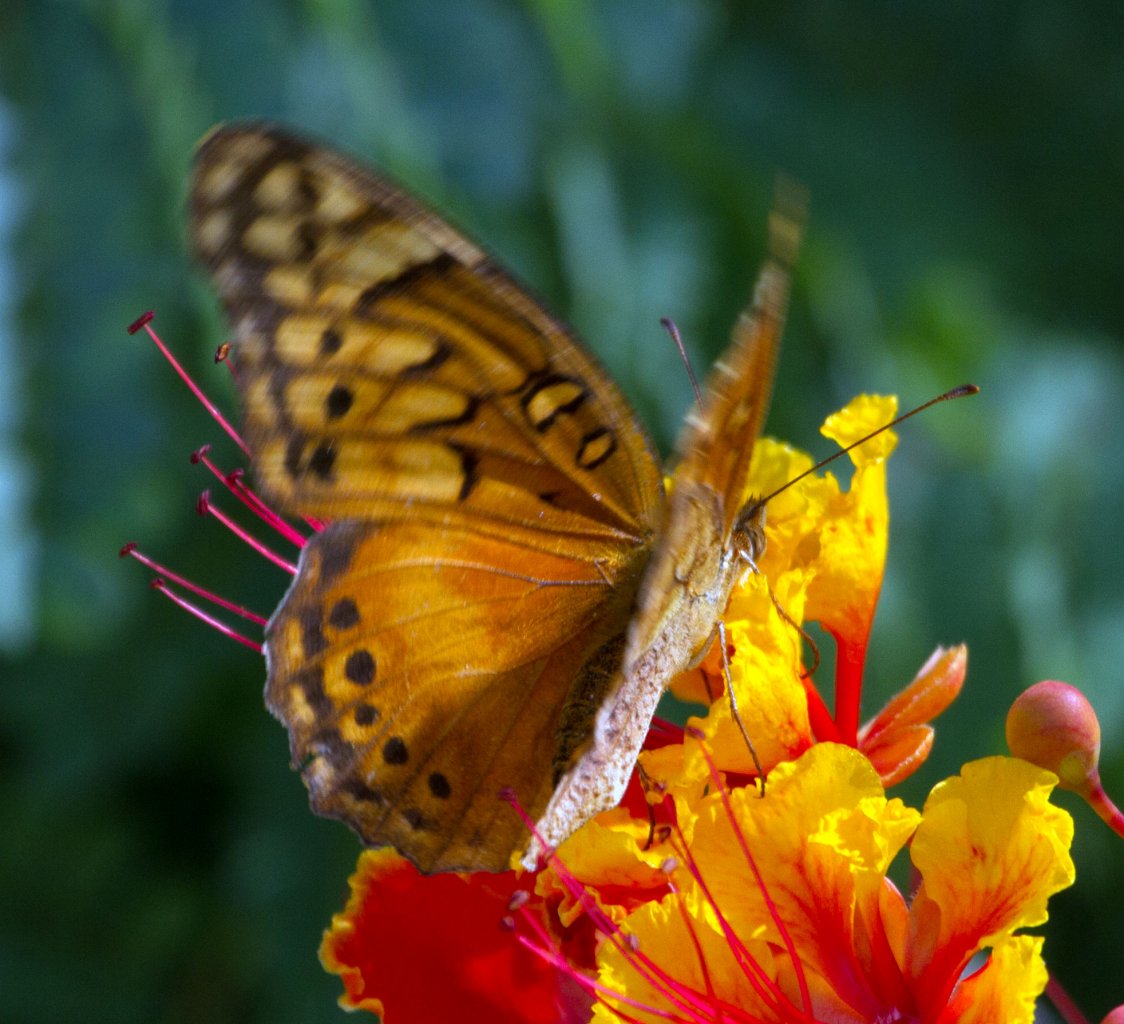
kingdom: Animalia
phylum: Arthropoda
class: Insecta
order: Lepidoptera
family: Nymphalidae
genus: Euptoieta
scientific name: Euptoieta hegesia
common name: Mexican Fritillary
